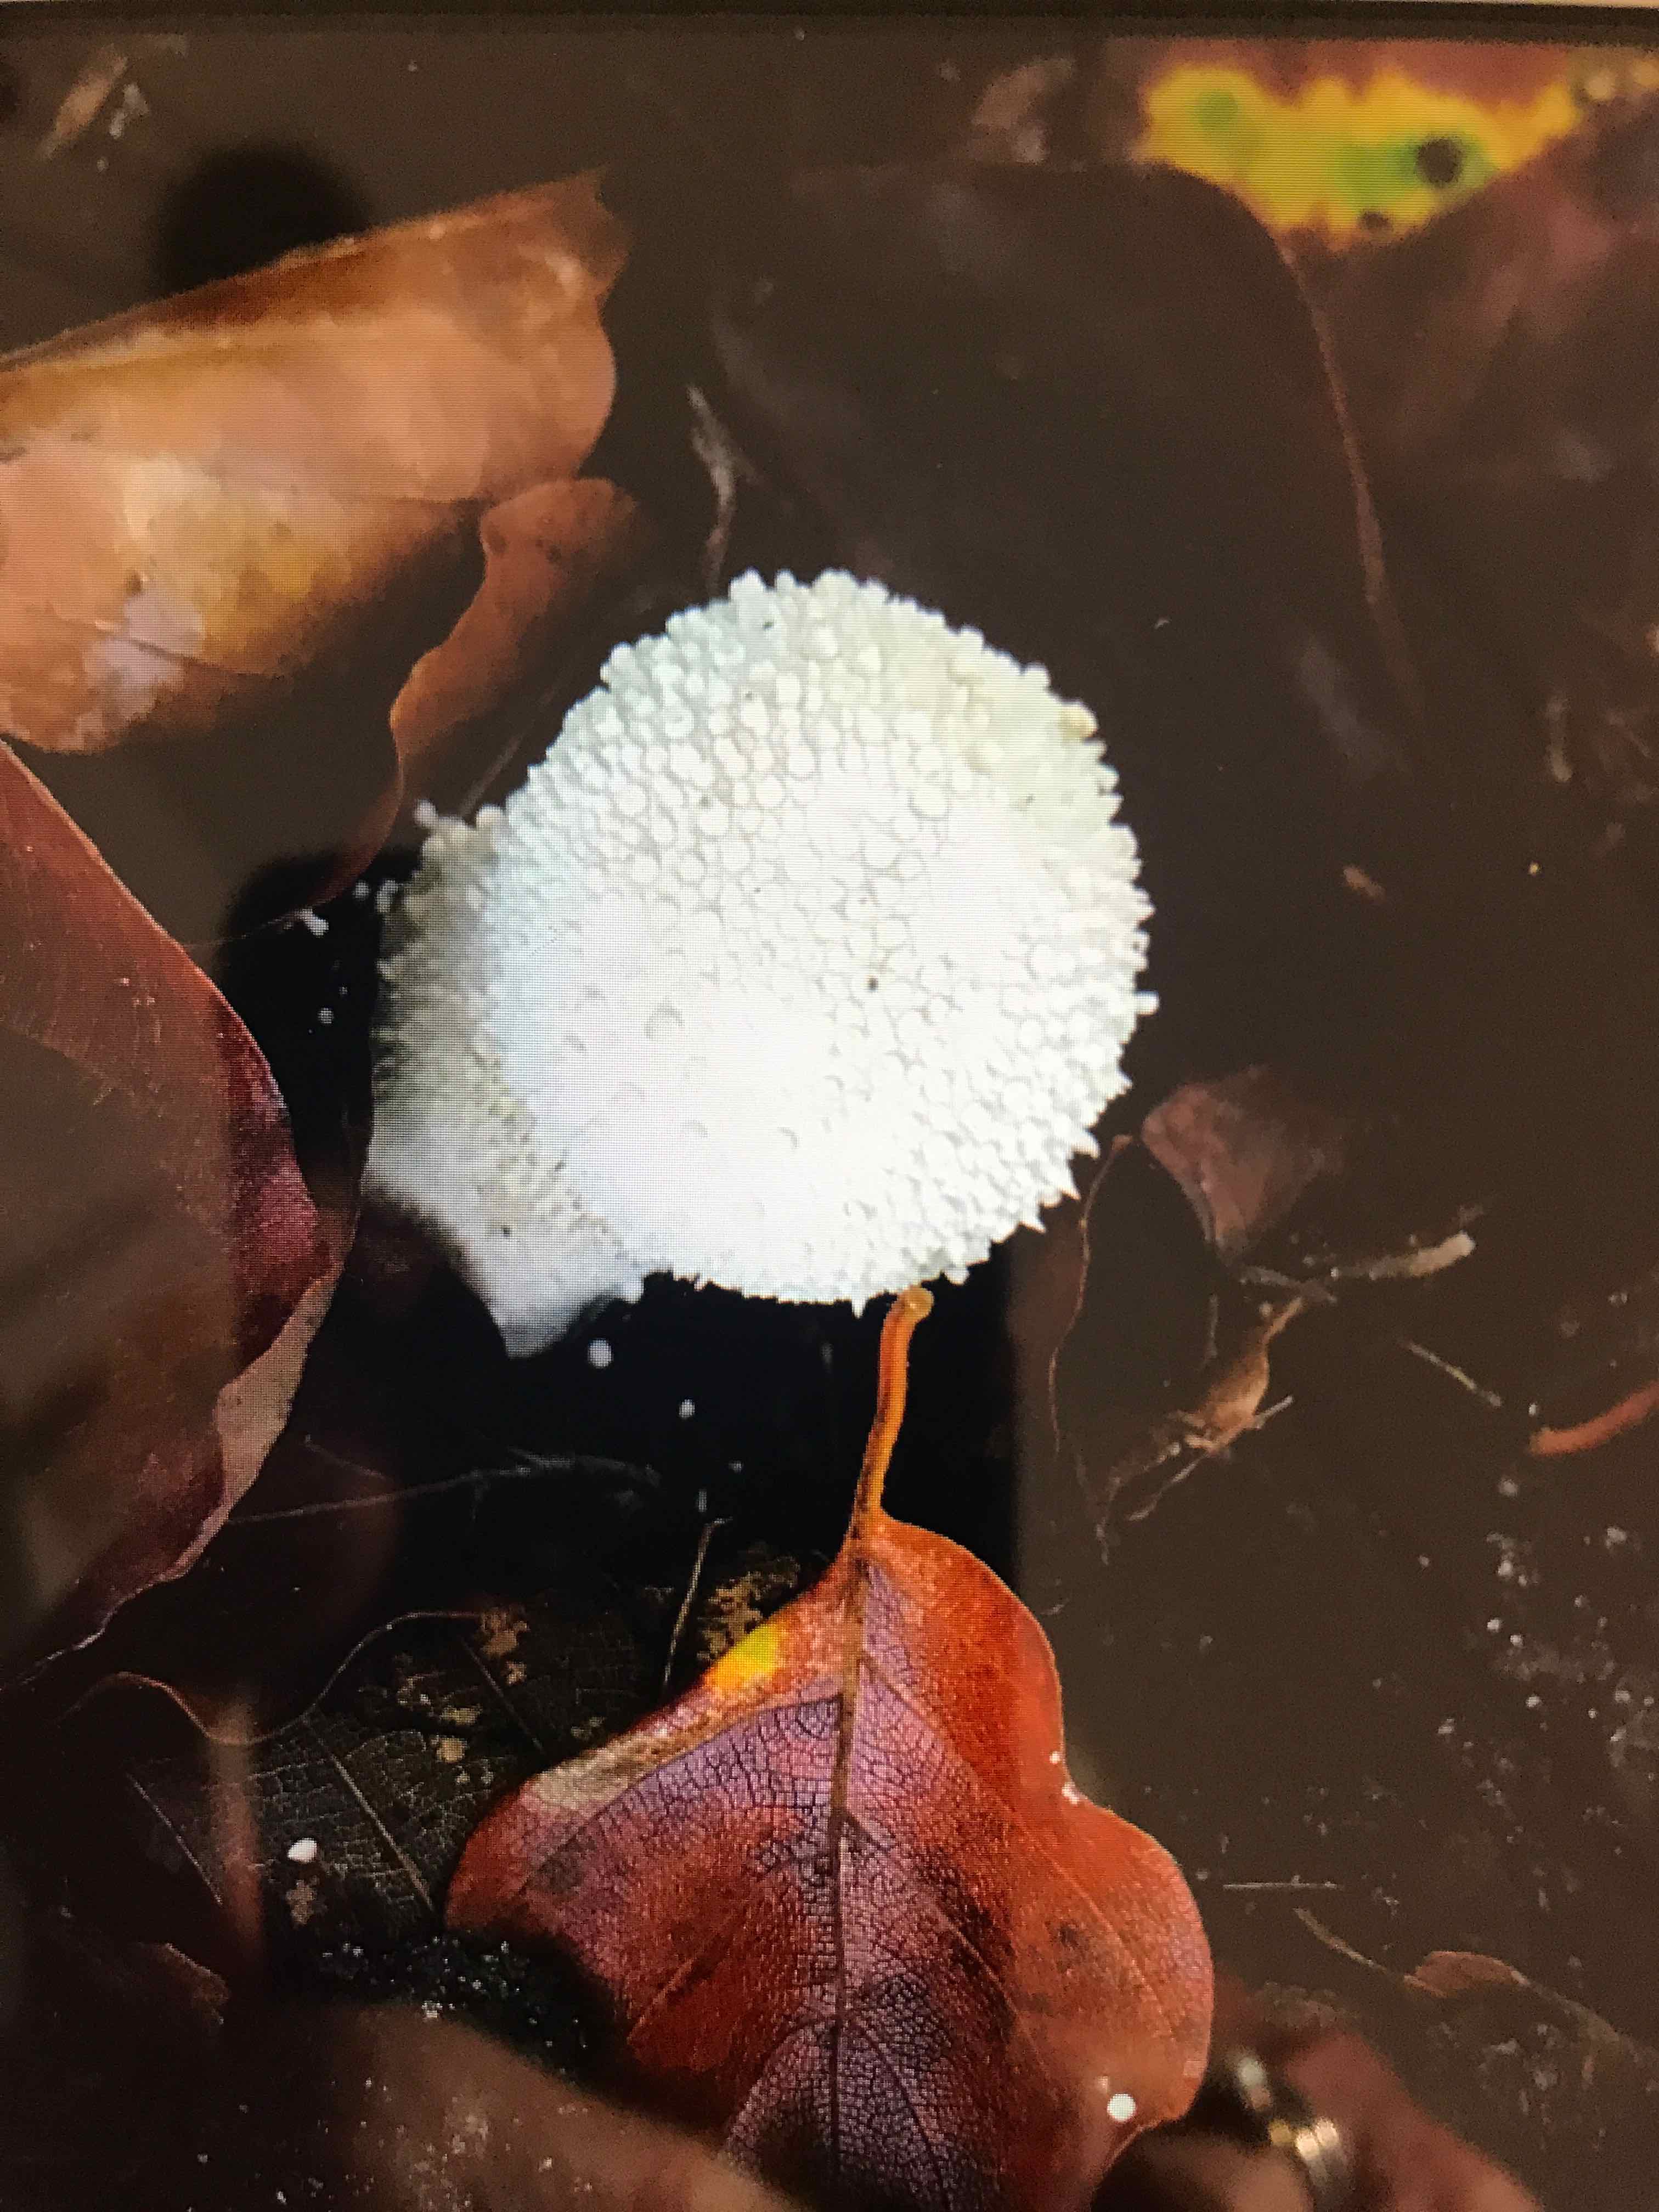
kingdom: Fungi
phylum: Basidiomycota
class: Agaricomycetes
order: Agaricales
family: Lycoperdaceae
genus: Lycoperdon
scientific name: Lycoperdon perlatum
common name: krystal-støvbold
